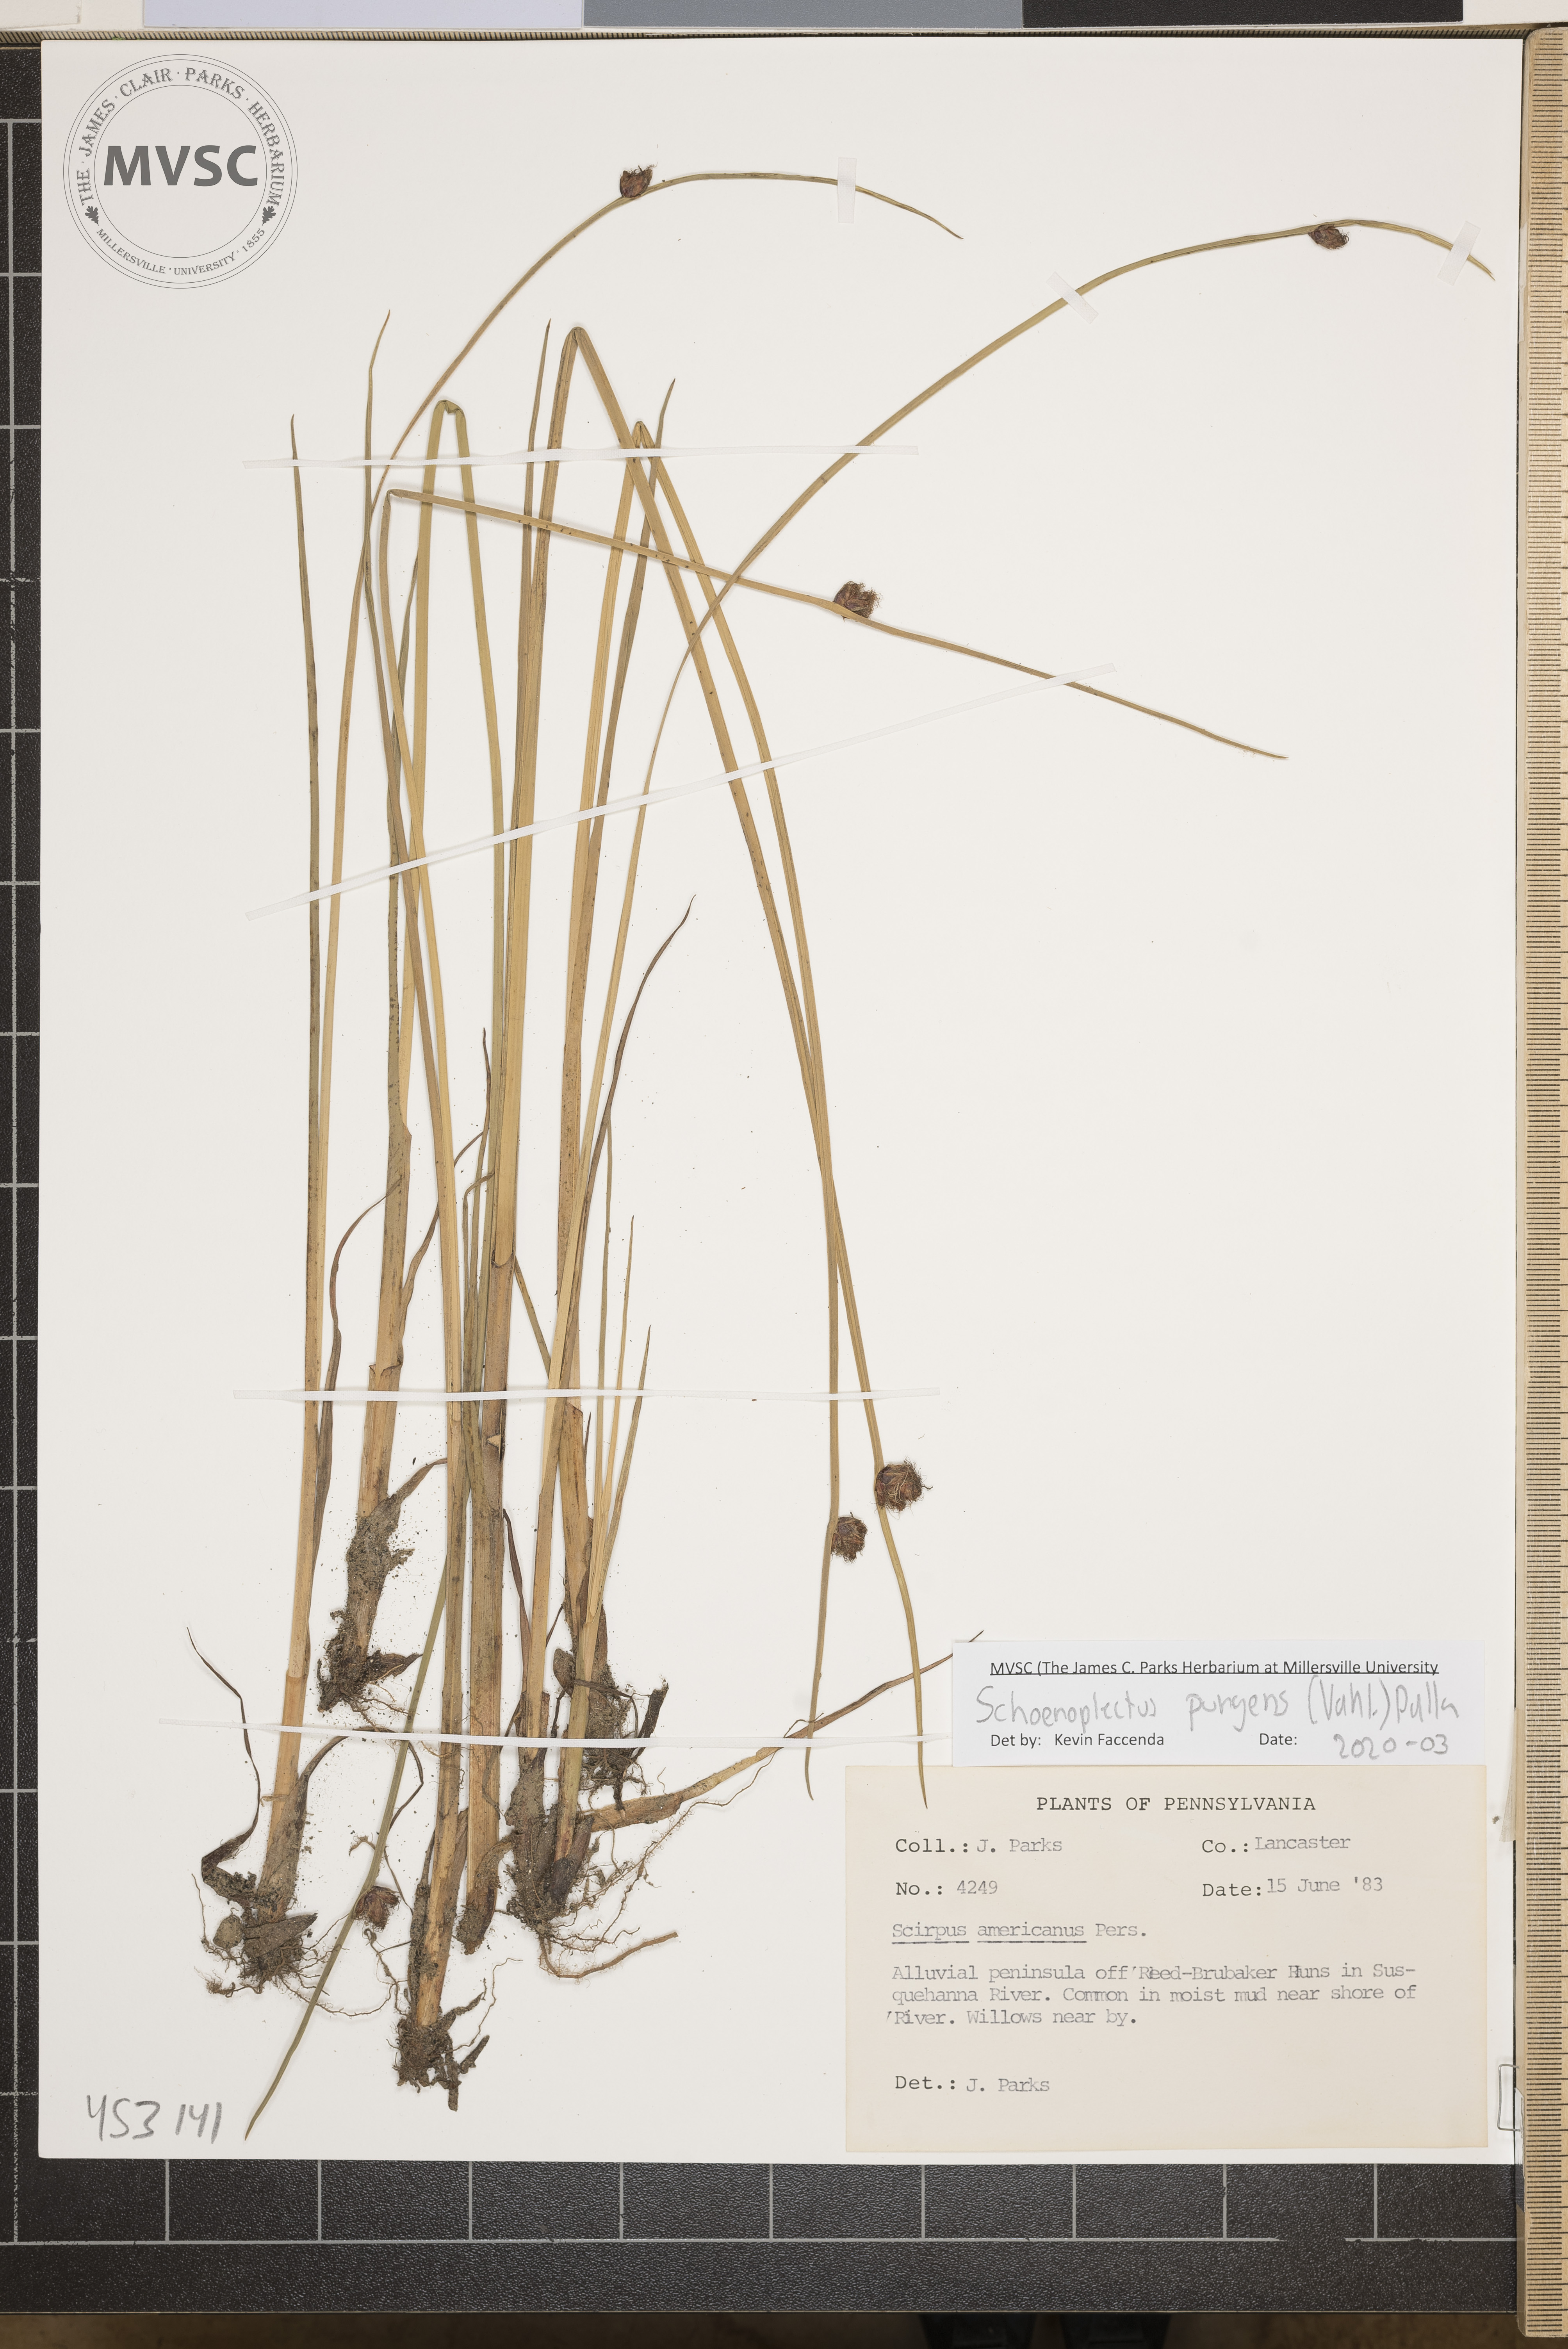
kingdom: Plantae
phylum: Tracheophyta
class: Liliopsida
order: Poales
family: Cyperaceae
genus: Schoenoplectus
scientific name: Schoenoplectus pungens
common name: Sharp club-rush
